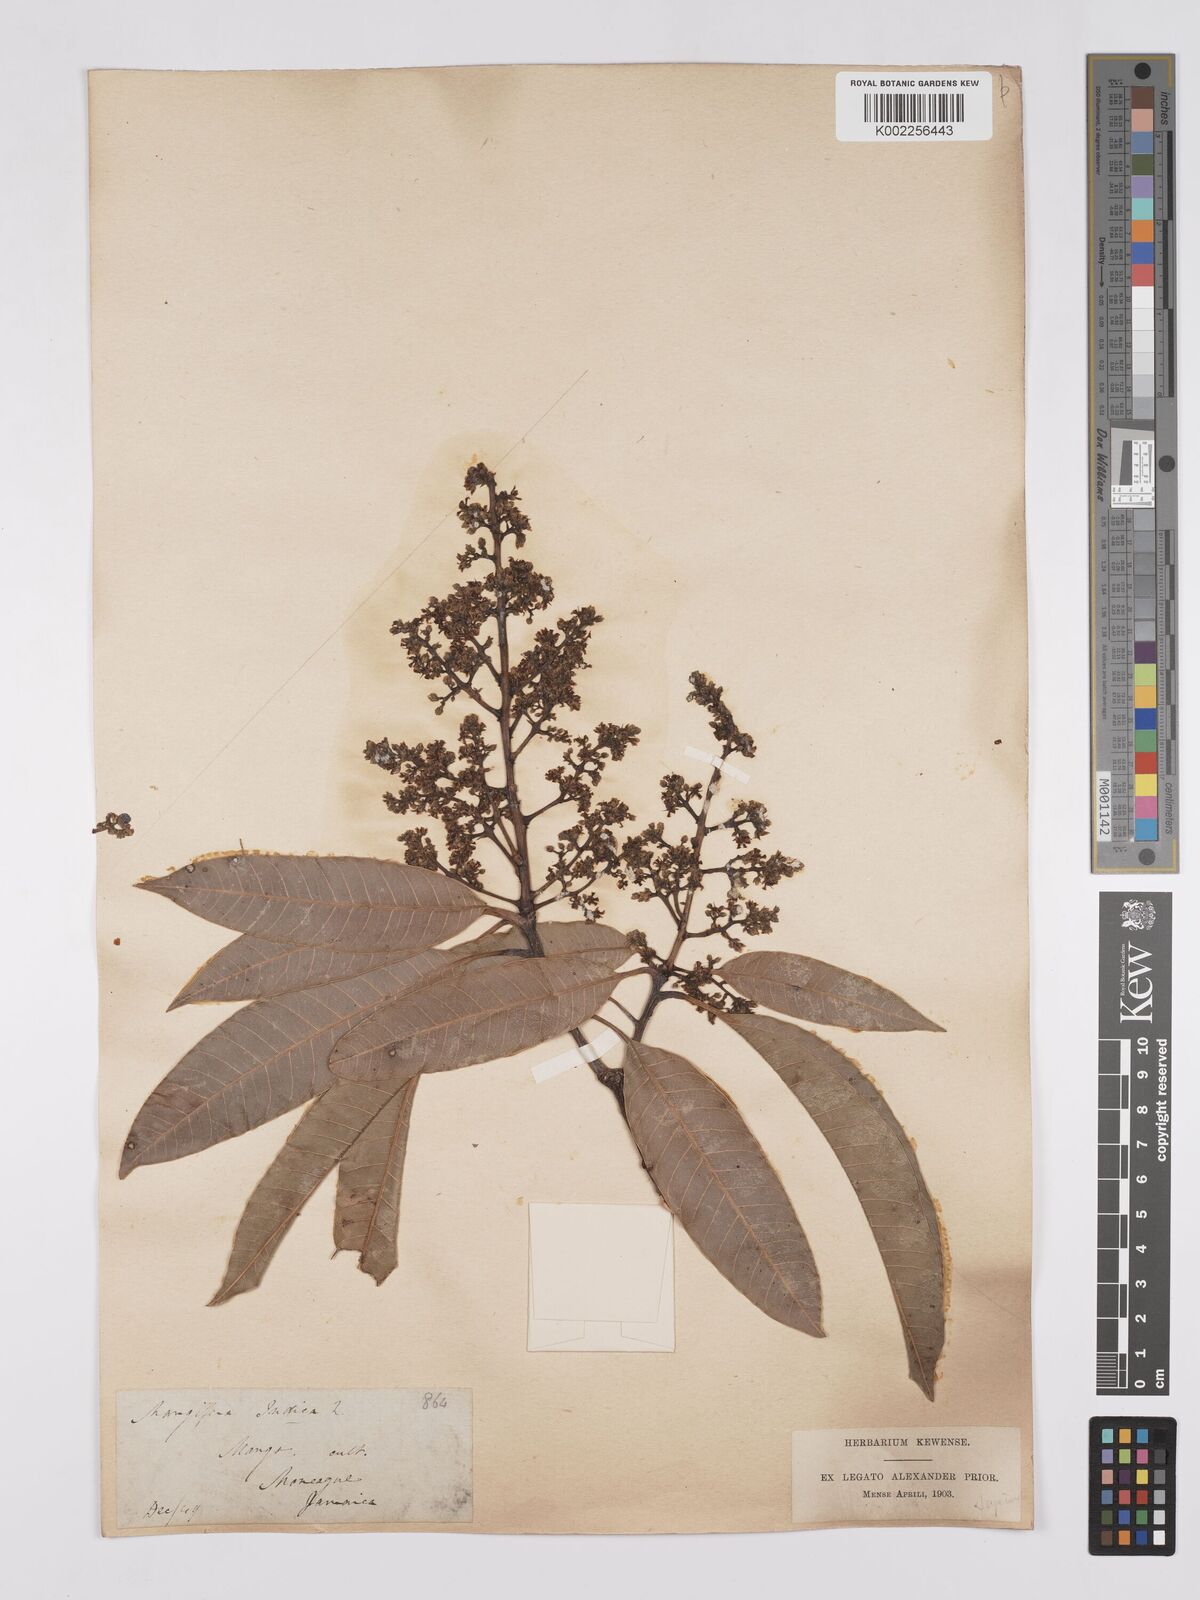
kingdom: Plantae
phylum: Tracheophyta
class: Magnoliopsida
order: Sapindales
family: Anacardiaceae
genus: Mangifera
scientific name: Mangifera indica
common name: Mango
